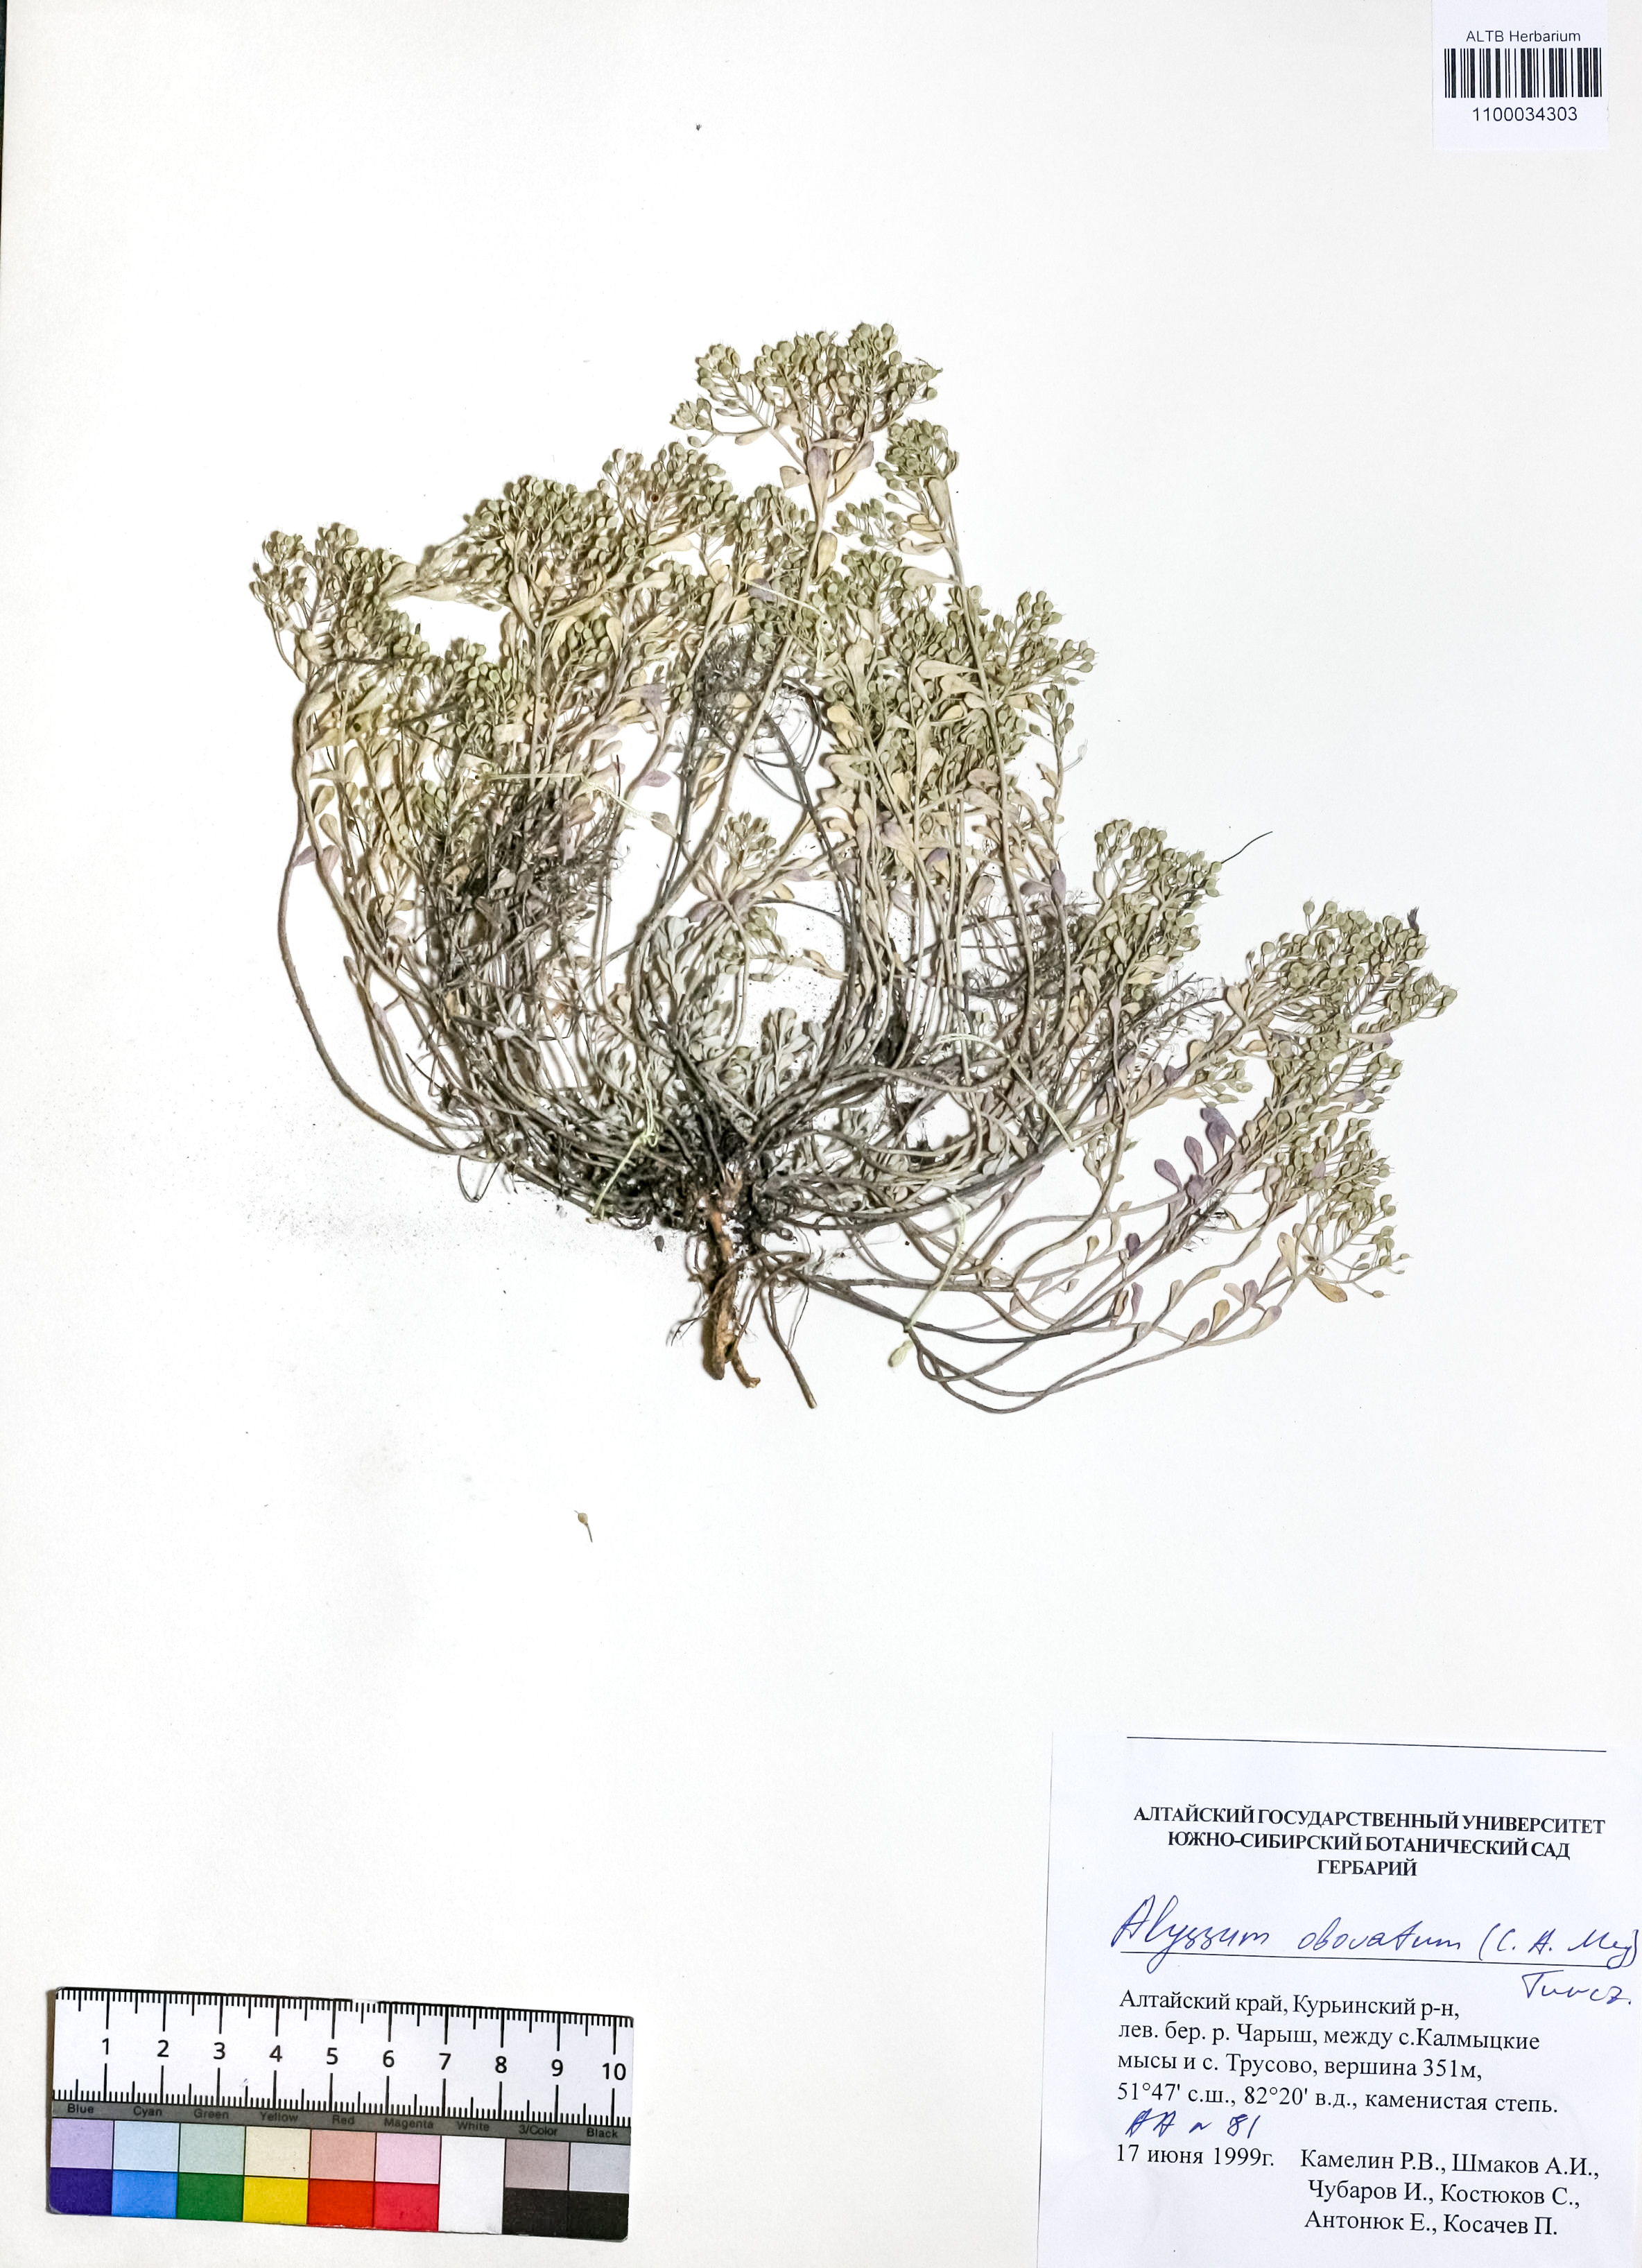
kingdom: Plantae
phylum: Tracheophyta
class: Magnoliopsida
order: Brassicales
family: Brassicaceae
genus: Odontarrhena
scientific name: Odontarrhena obovata
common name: American alyssum
